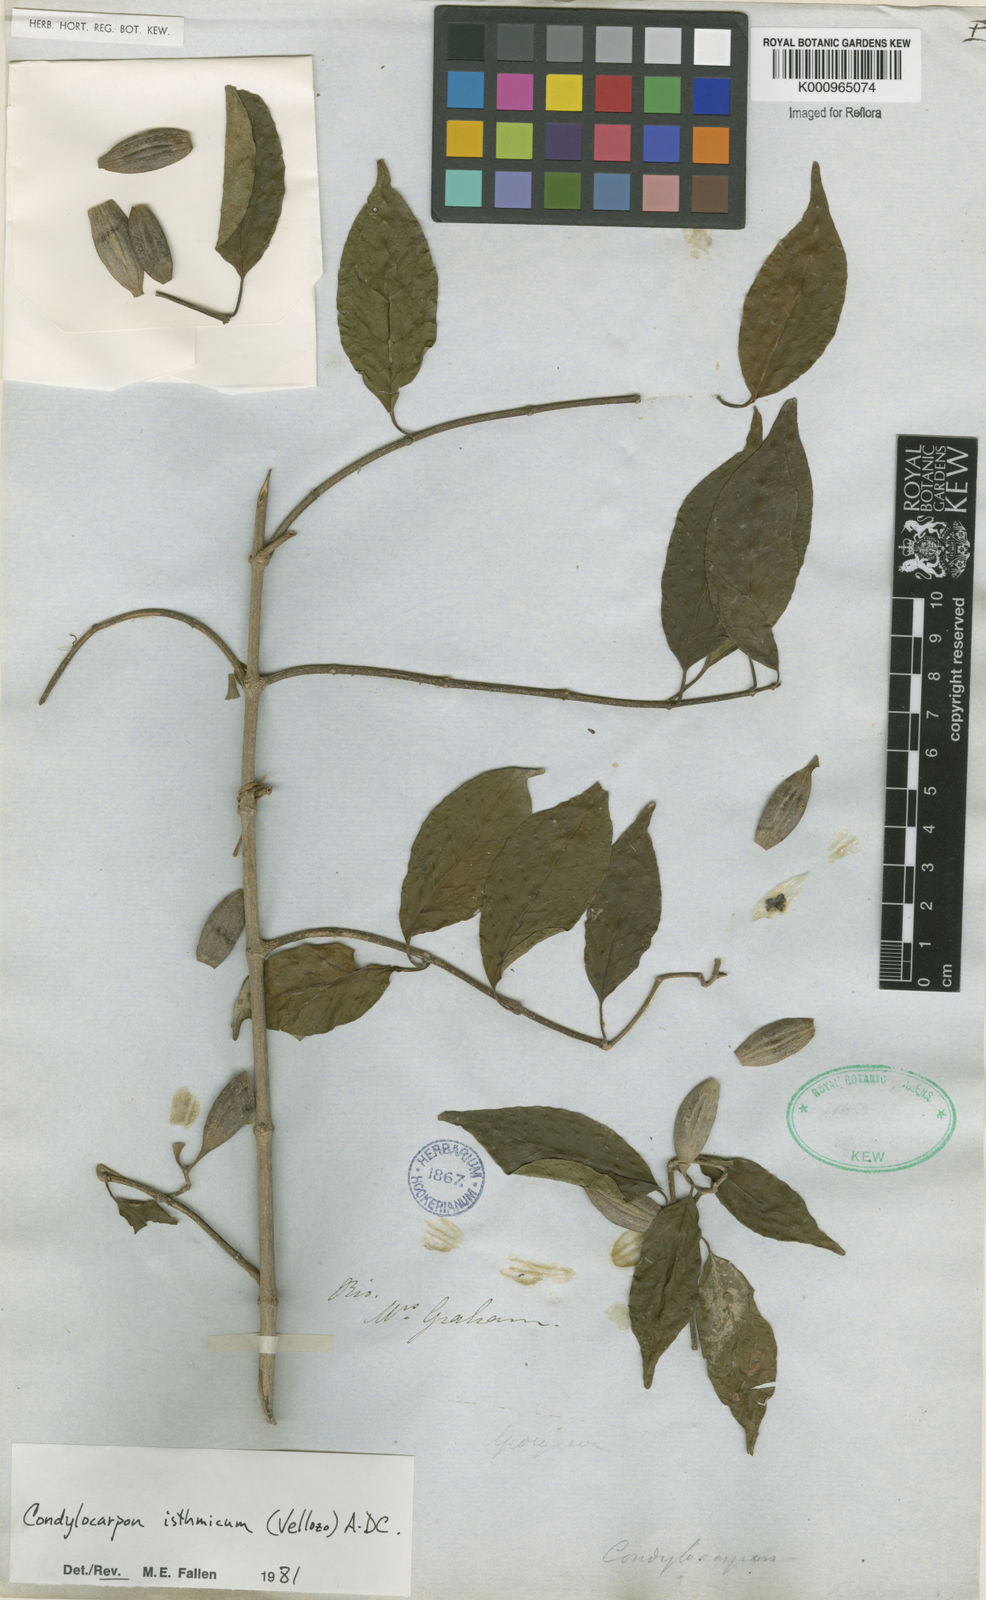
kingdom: Plantae
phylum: Tracheophyta
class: Magnoliopsida
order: Gentianales
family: Apocynaceae
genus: Condylocarpon
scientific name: Condylocarpon isthmicum
